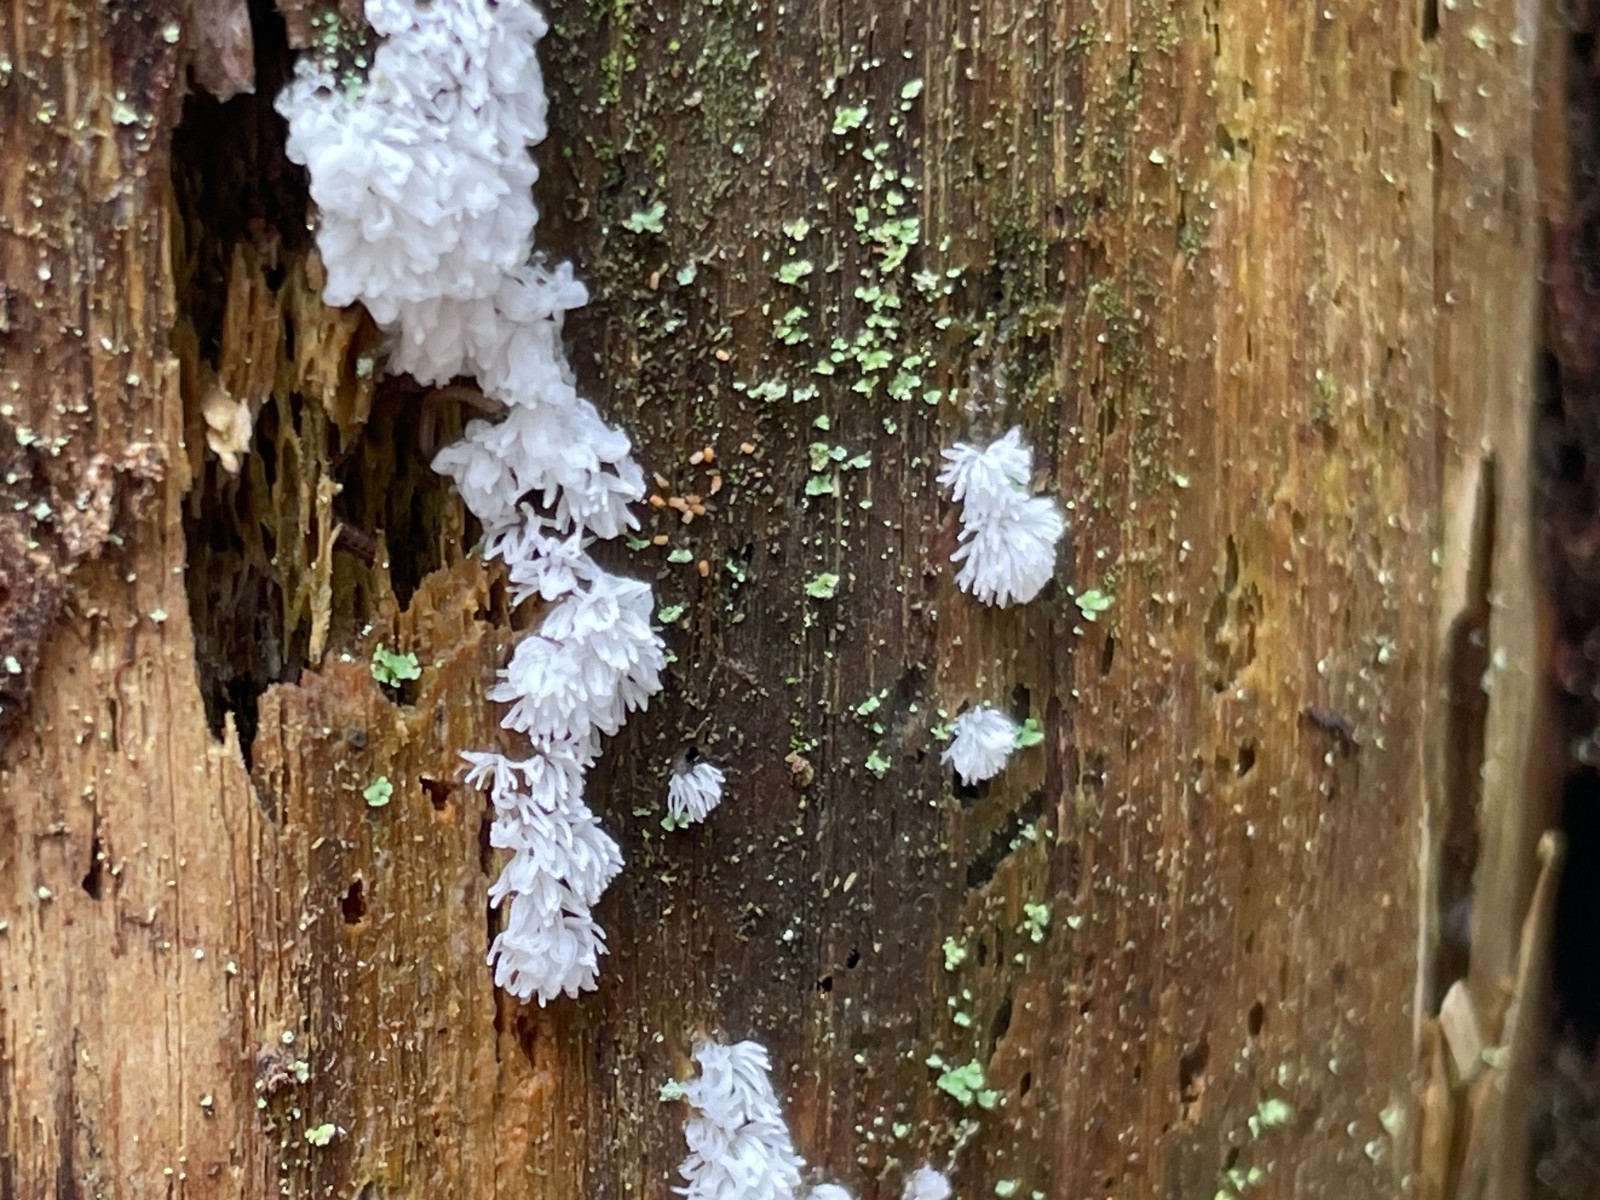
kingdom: Protozoa
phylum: Mycetozoa
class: Protosteliomycetes
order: Ceratiomyxales
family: Ceratiomyxaceae
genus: Ceratiomyxa
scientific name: Ceratiomyxa fruticulosa
